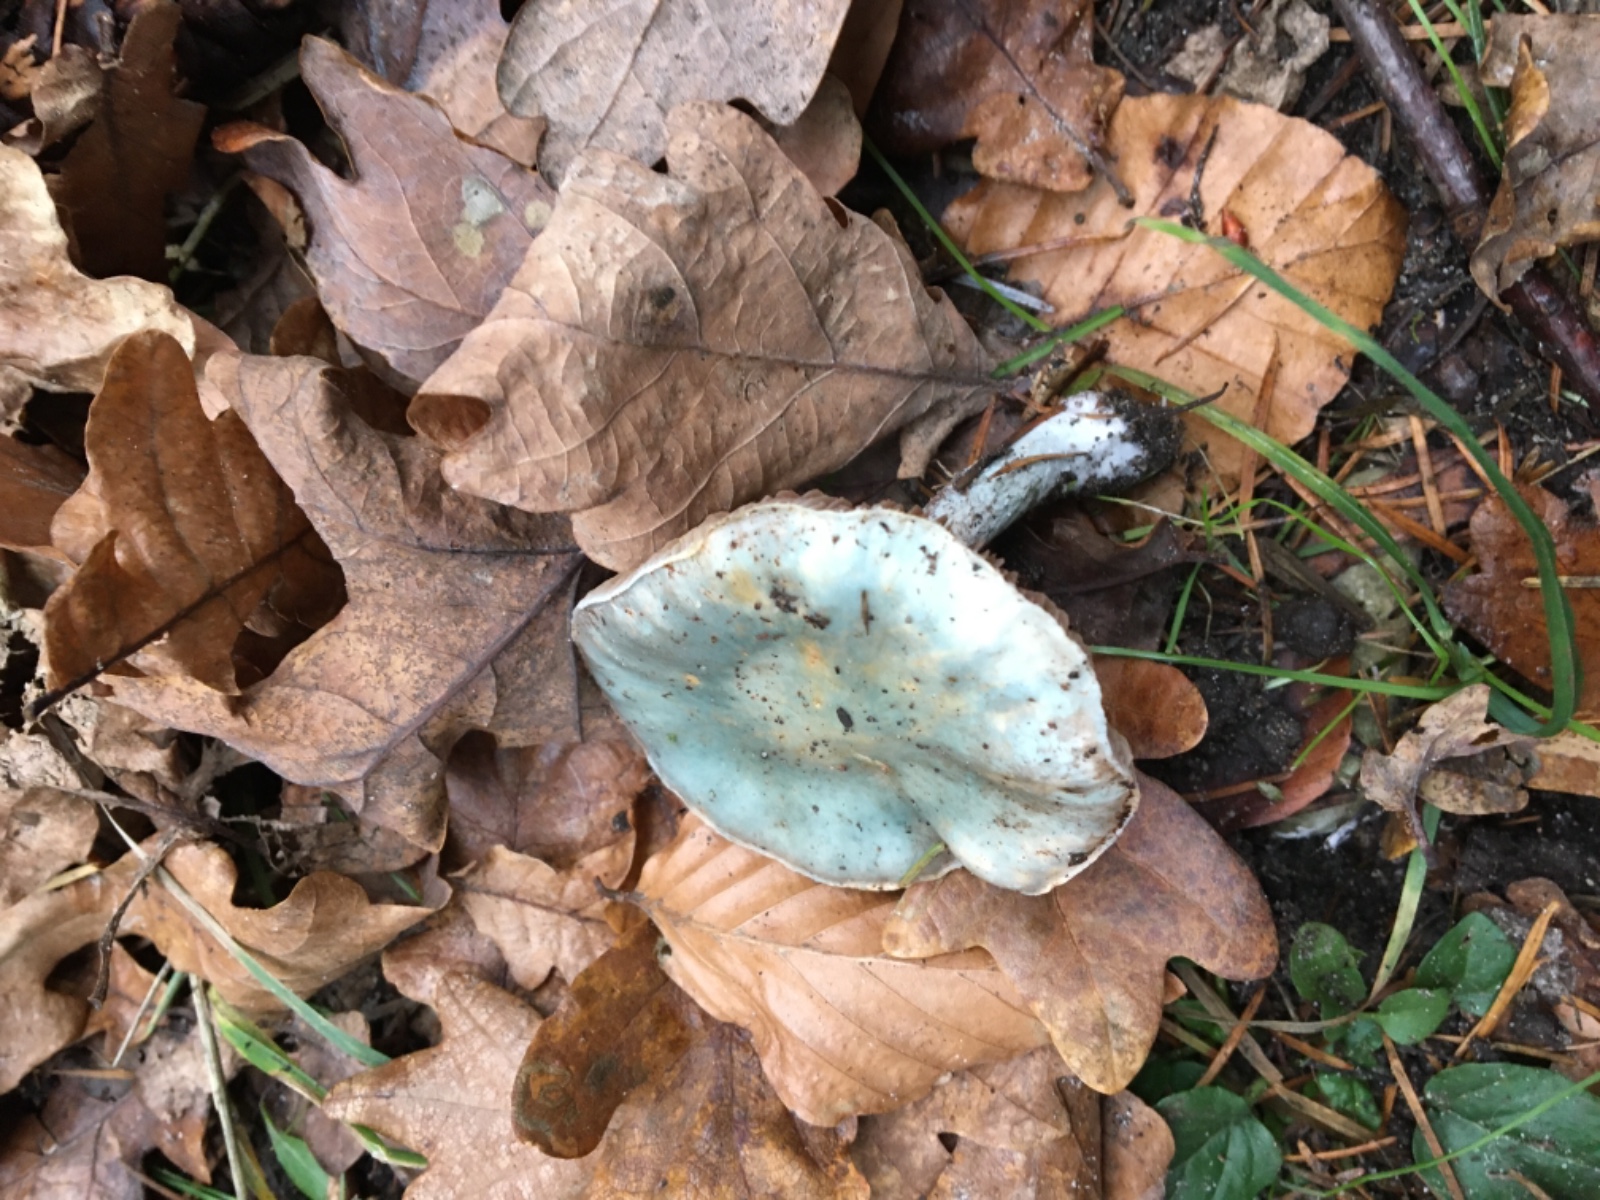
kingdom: Fungi
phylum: Basidiomycota
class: Agaricomycetes
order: Agaricales
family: Strophariaceae
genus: Stropharia
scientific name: Stropharia cyanea
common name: blågrøn bredblad
